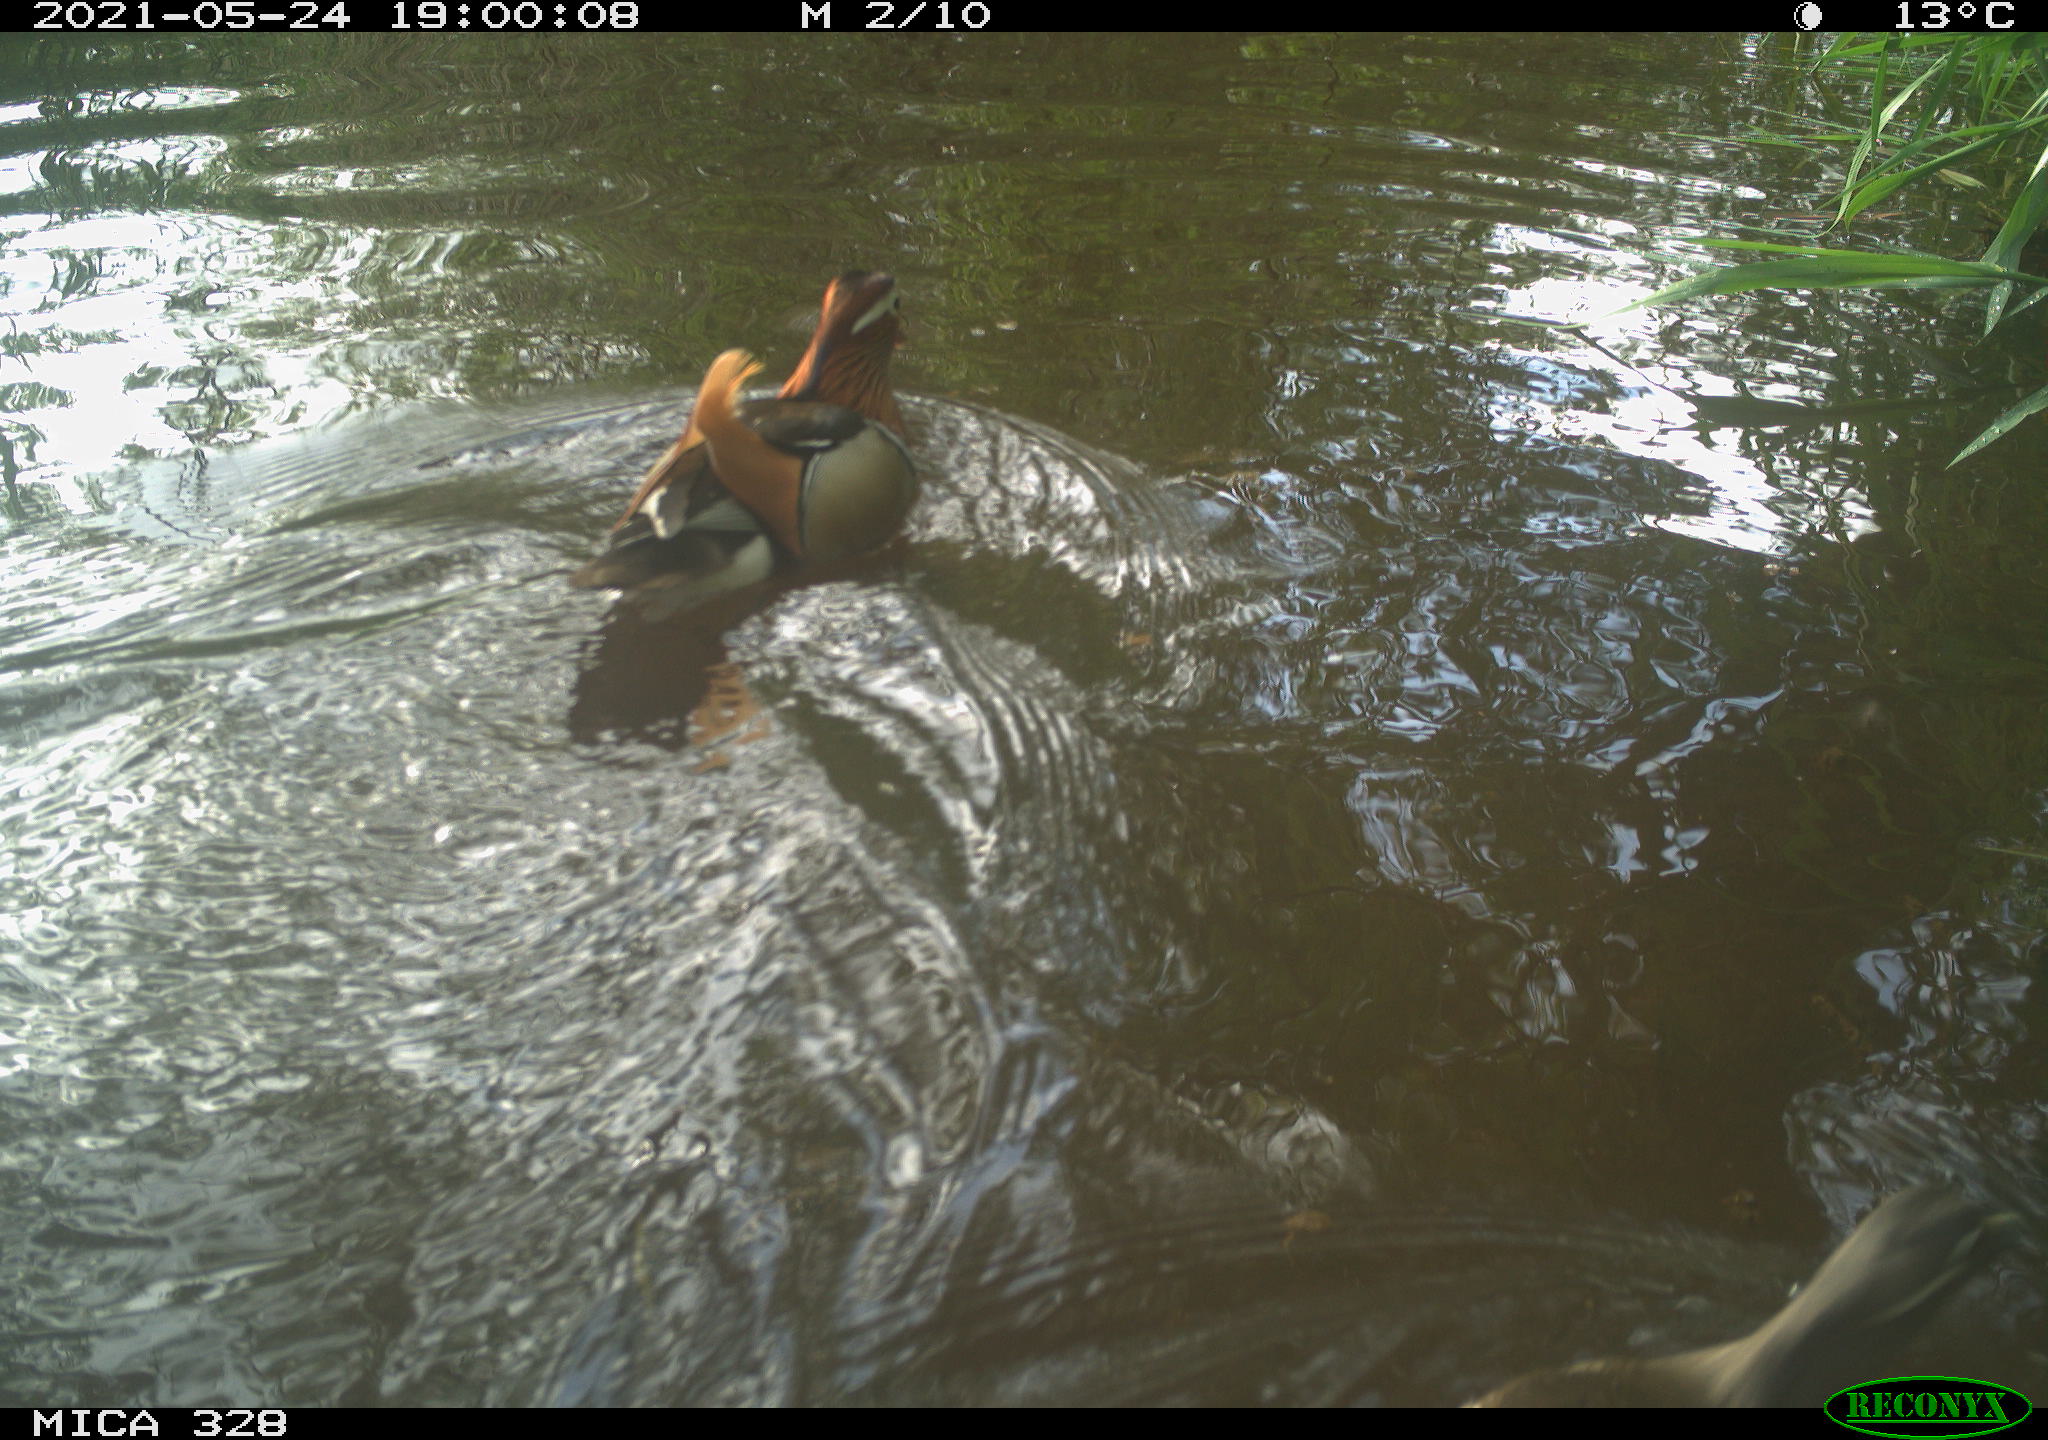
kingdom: Animalia
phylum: Chordata
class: Aves
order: Anseriformes
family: Anatidae
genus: Aix
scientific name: Aix galericulata
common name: Mandarin duck
